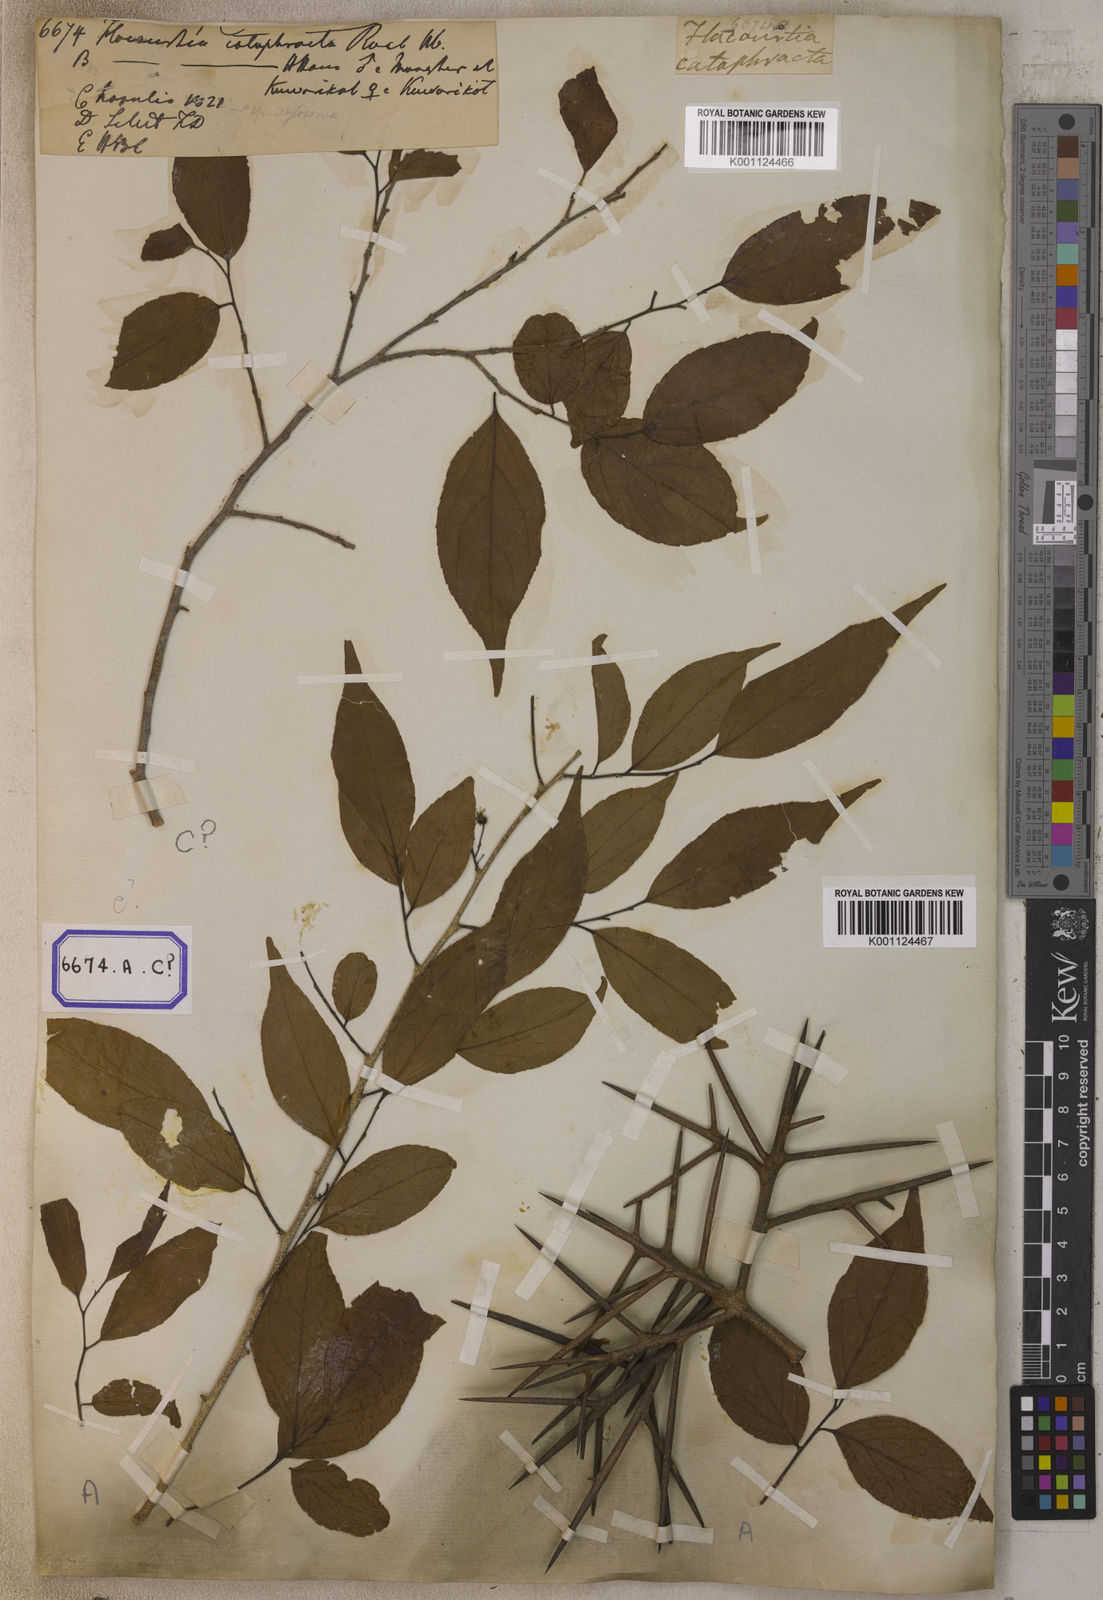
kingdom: Plantae
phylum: Tracheophyta
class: Magnoliopsida
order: Malpighiales
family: Salicaceae
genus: Flacourtia
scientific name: Flacourtia
